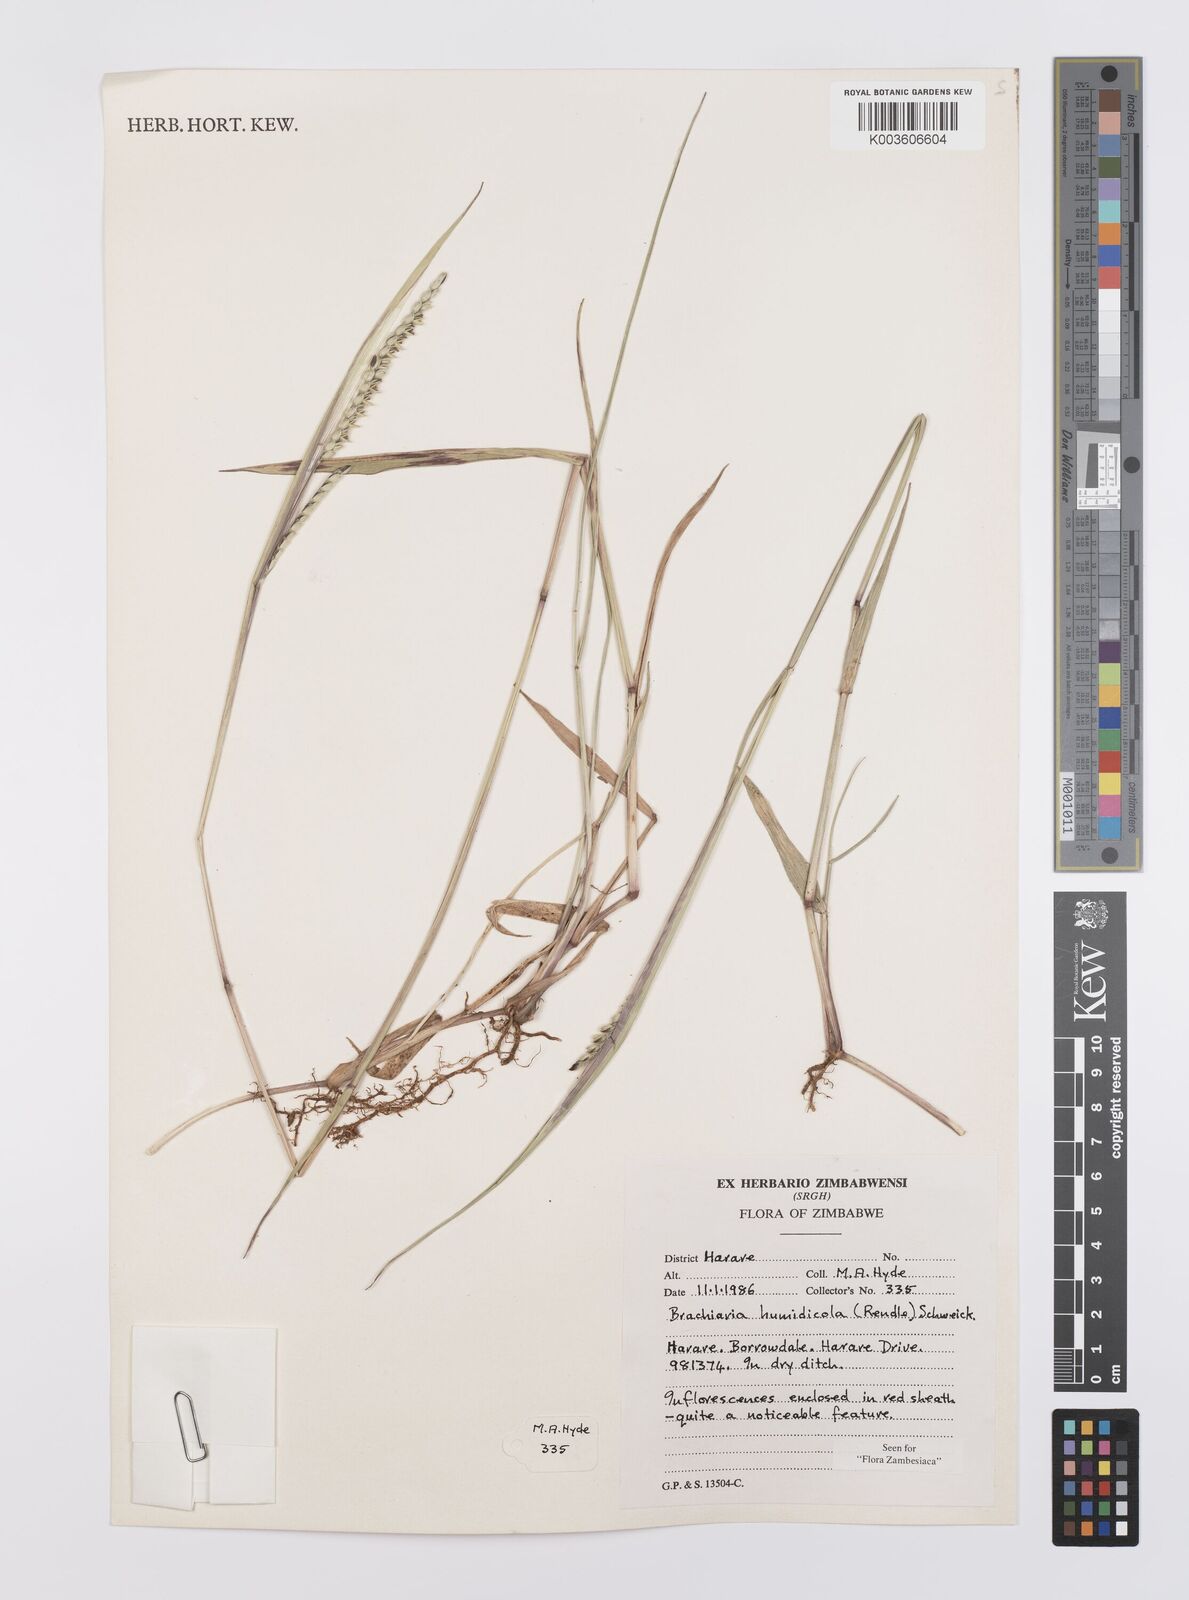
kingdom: Plantae
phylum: Tracheophyta
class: Liliopsida
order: Poales
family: Poaceae
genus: Urochloa
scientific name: Urochloa dictyoneura
